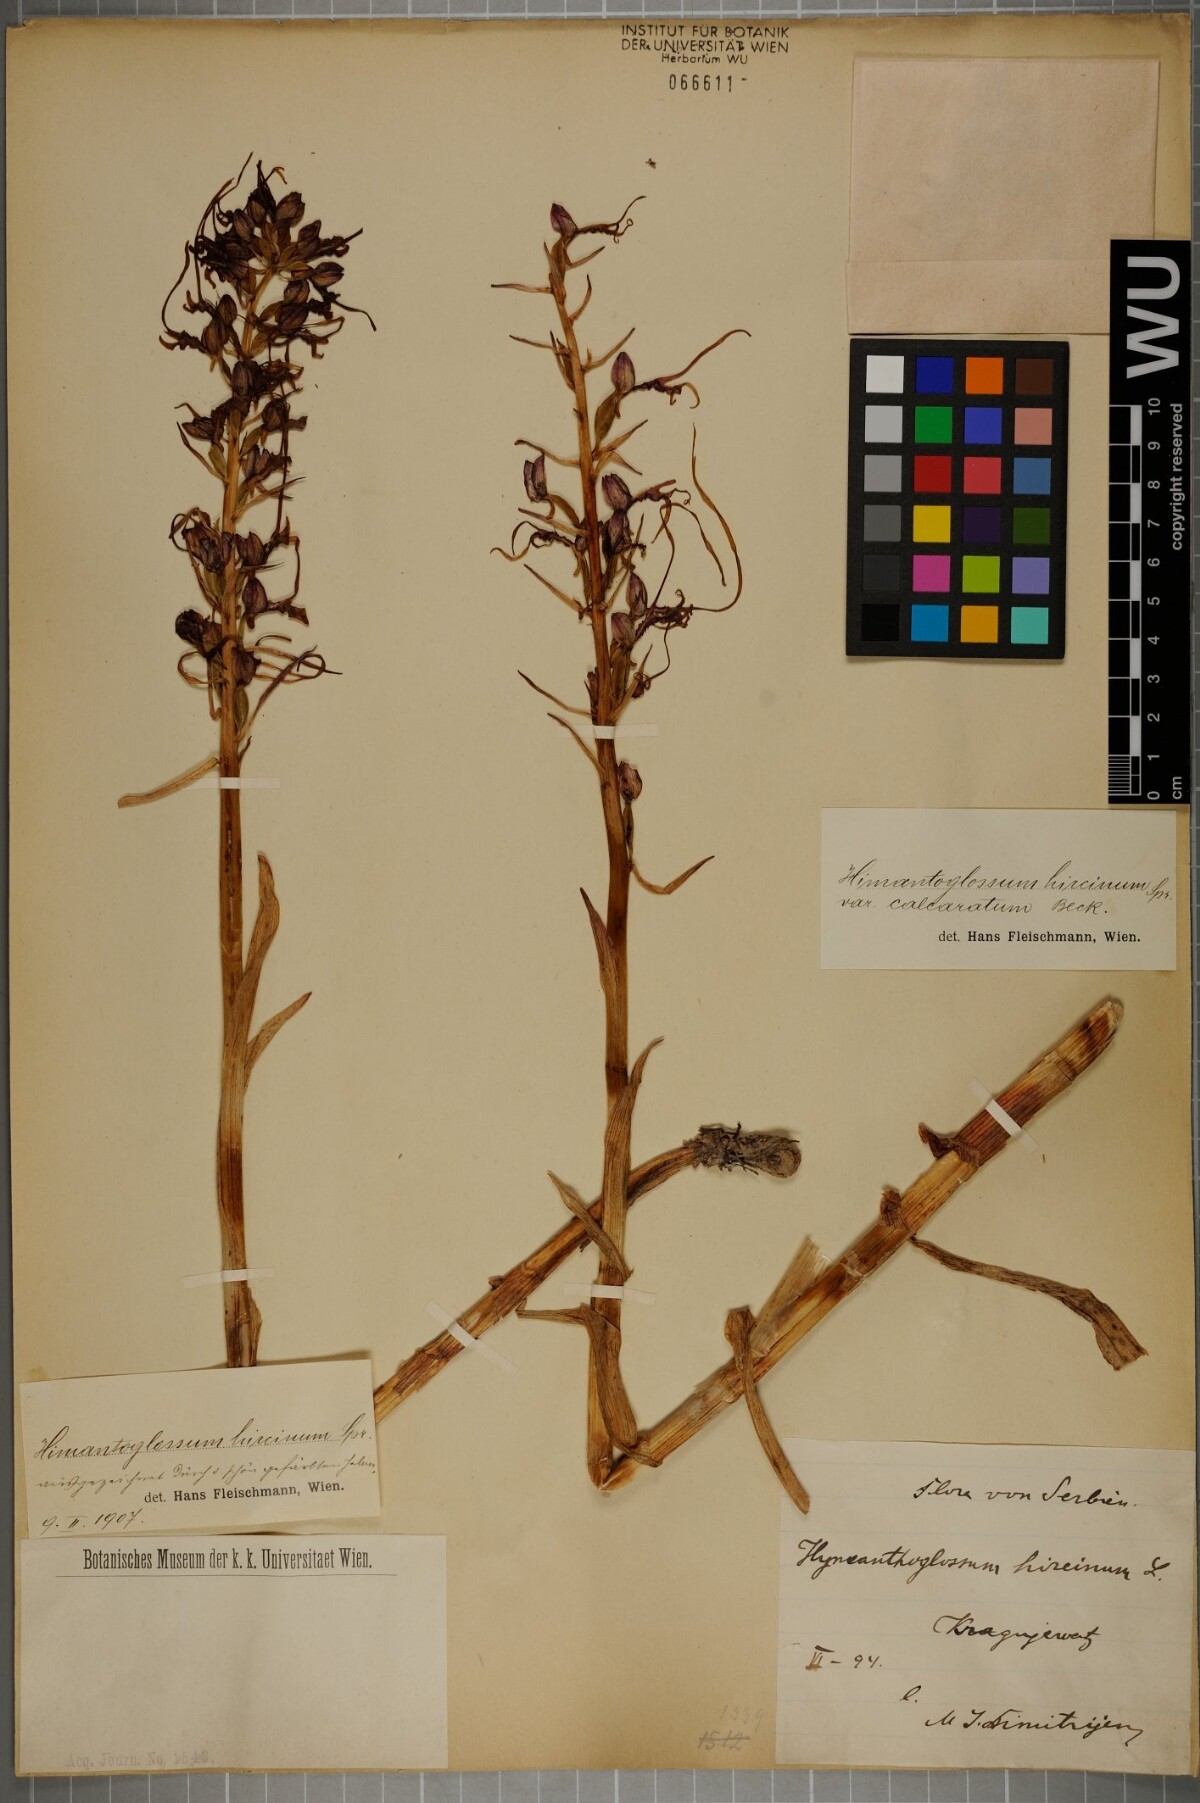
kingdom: Plantae
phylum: Tracheophyta
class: Liliopsida
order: Asparagales
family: Orchidaceae
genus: Himantoglossum
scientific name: Himantoglossum calcaratum
